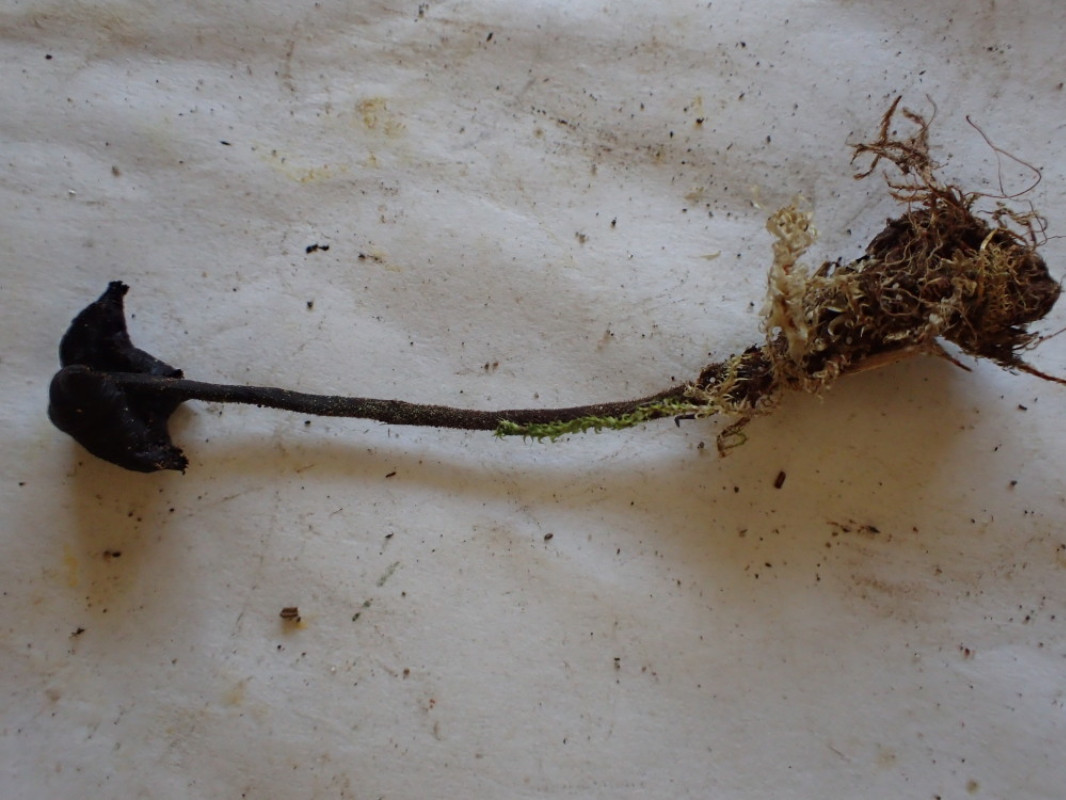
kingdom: Fungi
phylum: Basidiomycota
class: Agaricomycetes
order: Russulales
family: Auriscalpiaceae
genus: Auriscalpium
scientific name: Auriscalpium vulgare
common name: koglepigsvamp
